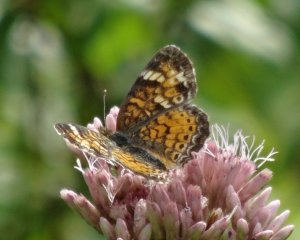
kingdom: Animalia
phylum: Arthropoda
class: Insecta
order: Lepidoptera
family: Nymphalidae
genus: Phyciodes
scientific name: Phyciodes tharos
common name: Northern Crescent
